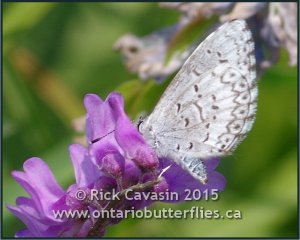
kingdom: Animalia
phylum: Arthropoda
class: Insecta
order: Lepidoptera
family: Lycaenidae
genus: Cyaniris
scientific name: Cyaniris neglecta
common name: Summer Azure
